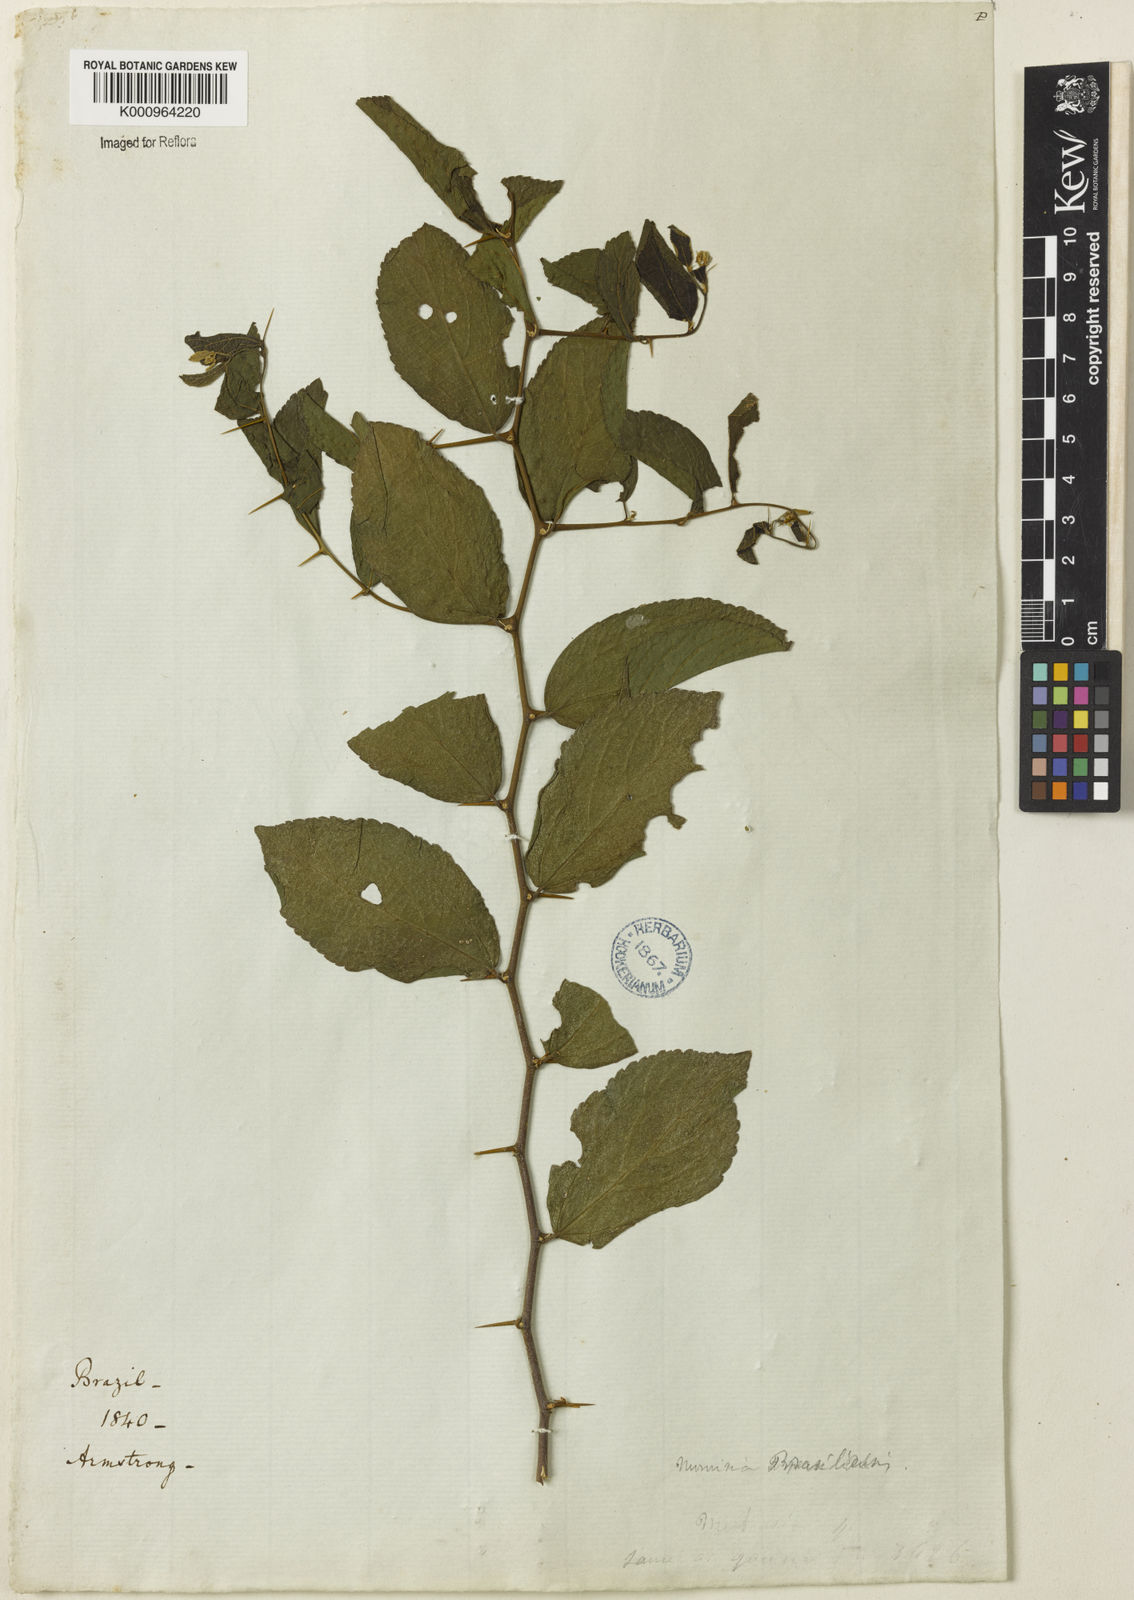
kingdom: Plantae
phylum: Tracheophyta
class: Magnoliopsida
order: Rosales
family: Cannabaceae
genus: Celtis
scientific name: Celtis brasiliensis
